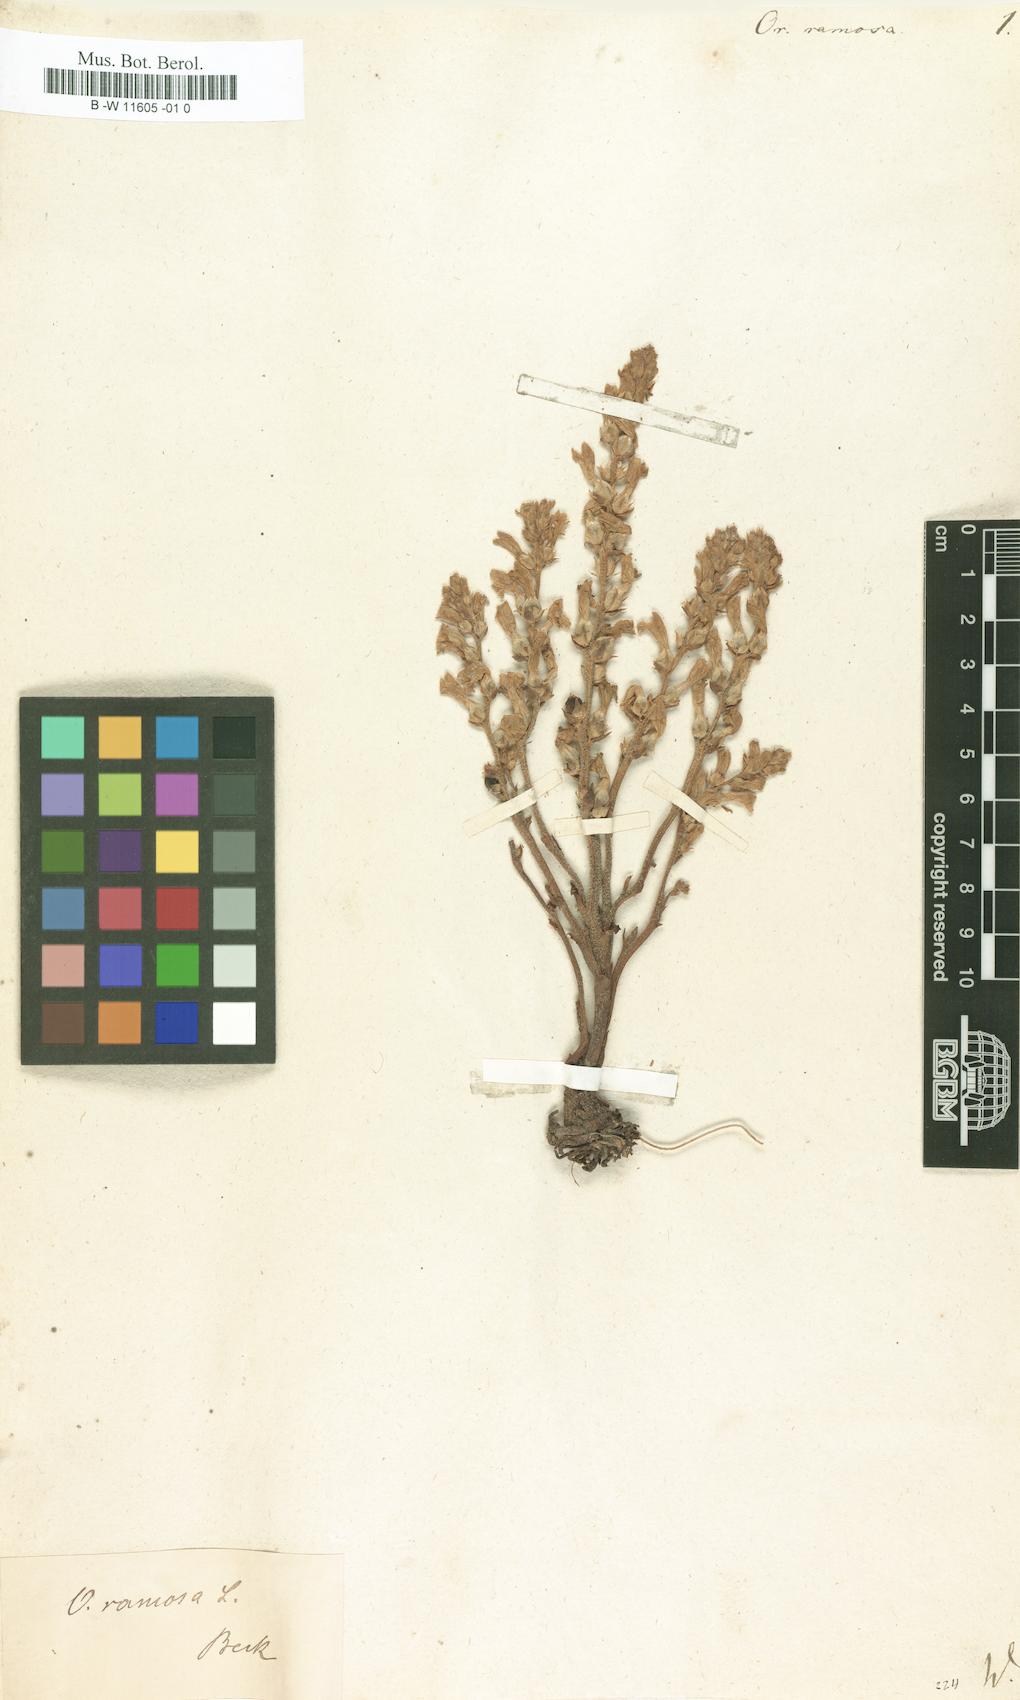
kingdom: Plantae
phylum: Tracheophyta
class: Magnoliopsida
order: Lamiales
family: Orobanchaceae
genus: Phelipanche
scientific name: Phelipanche ramosa
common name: Branched broomrape
